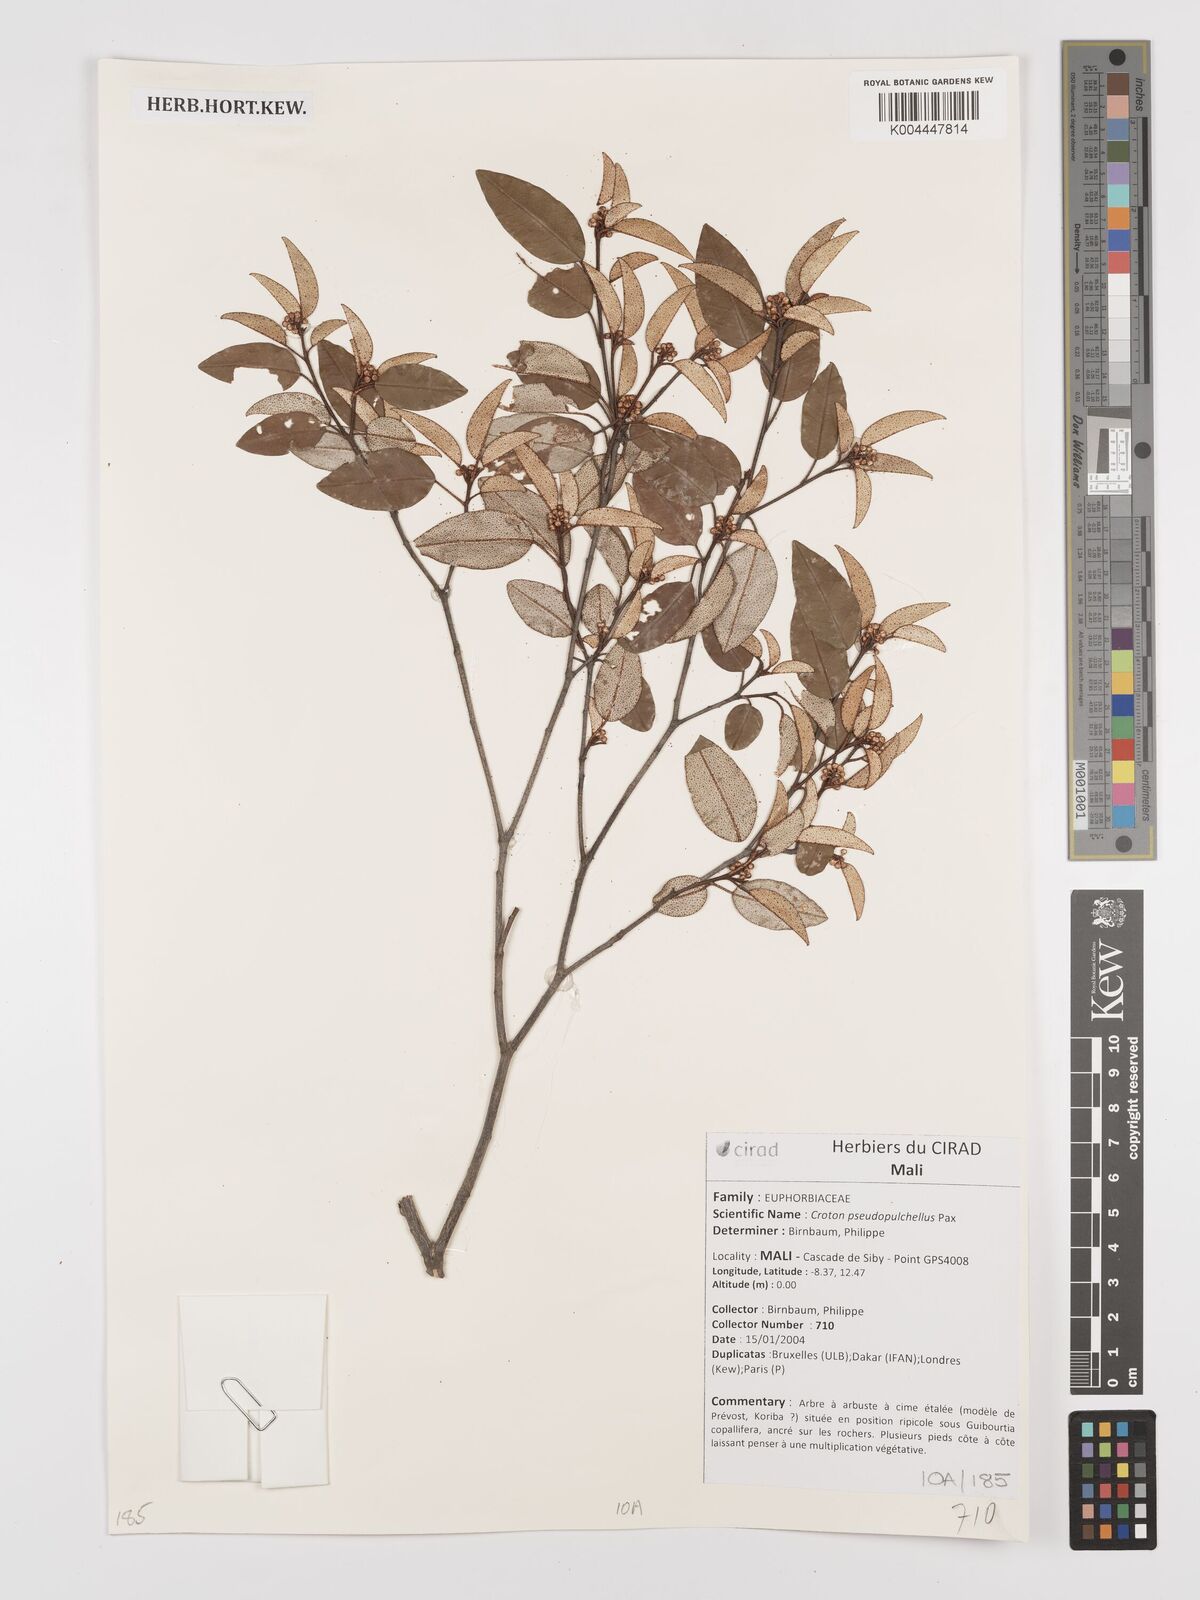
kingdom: Plantae
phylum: Tracheophyta
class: Magnoliopsida
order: Malpighiales
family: Euphorbiaceae
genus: Croton
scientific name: Croton pseudopulchellus
